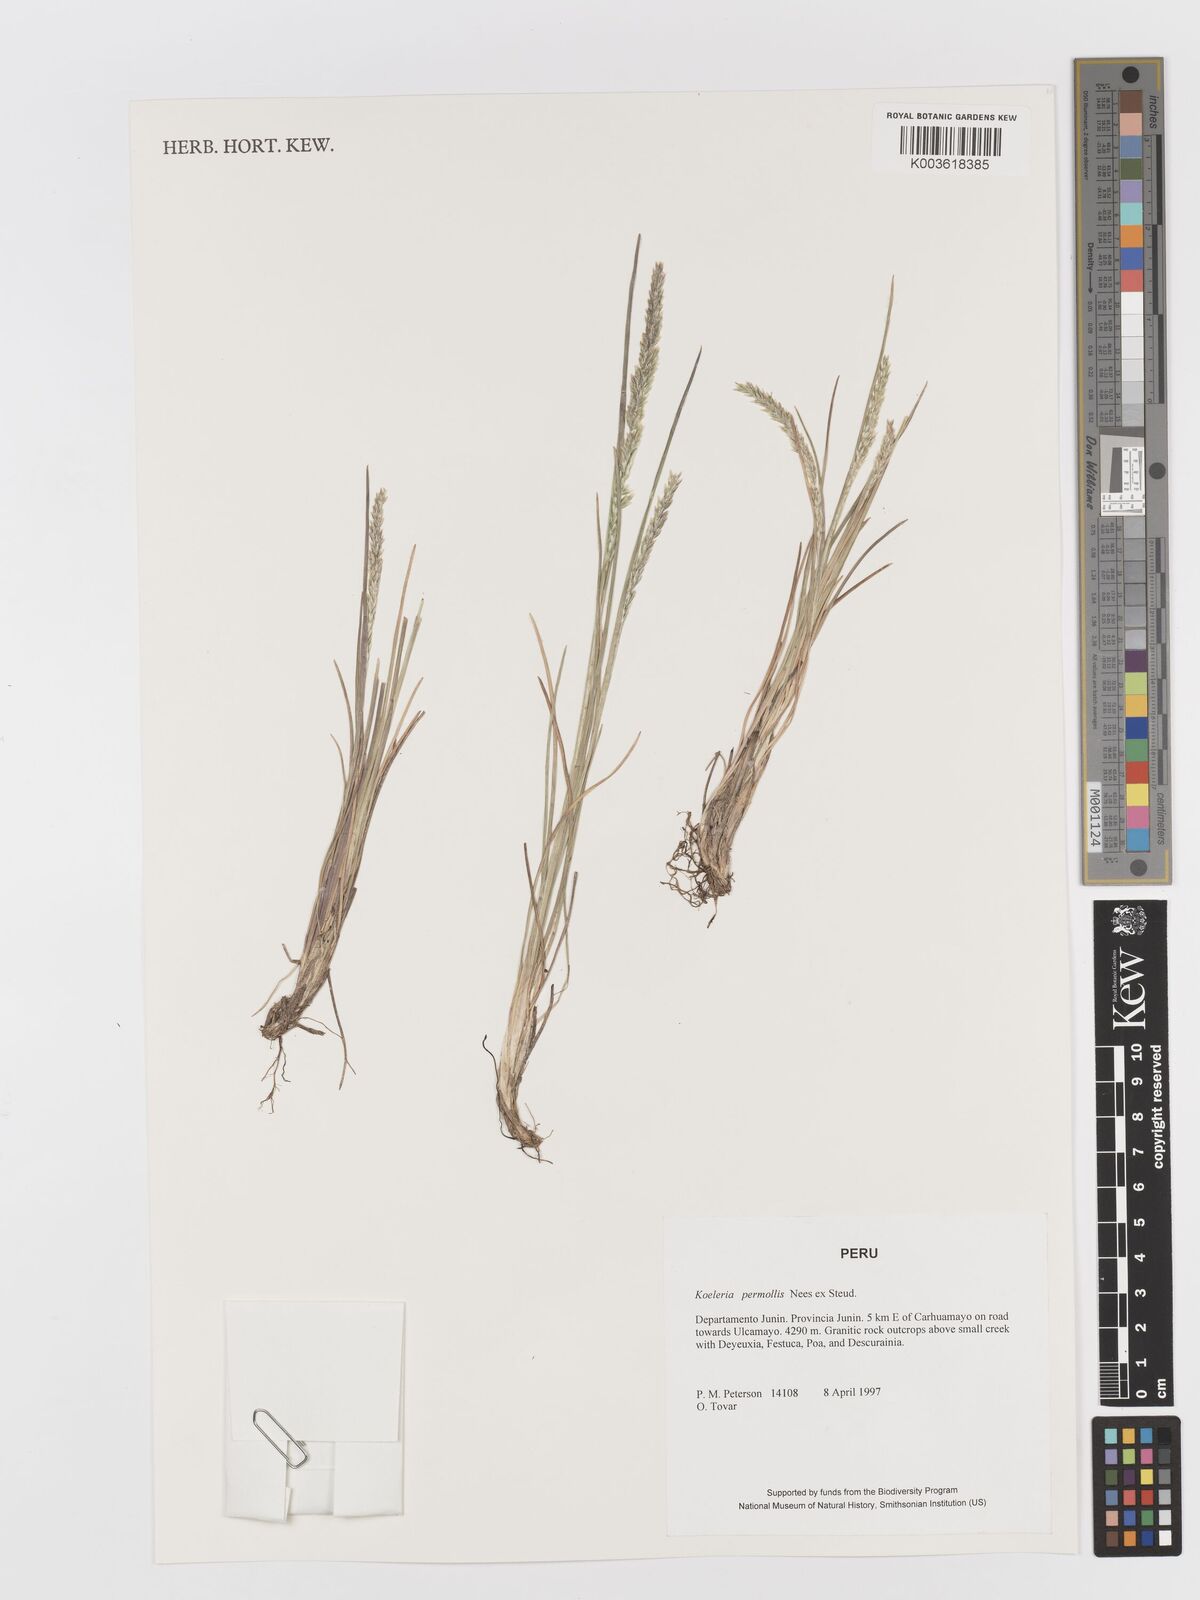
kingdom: Plantae
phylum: Tracheophyta
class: Liliopsida
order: Poales
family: Poaceae
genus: Koeleria
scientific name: Koeleria permollis
